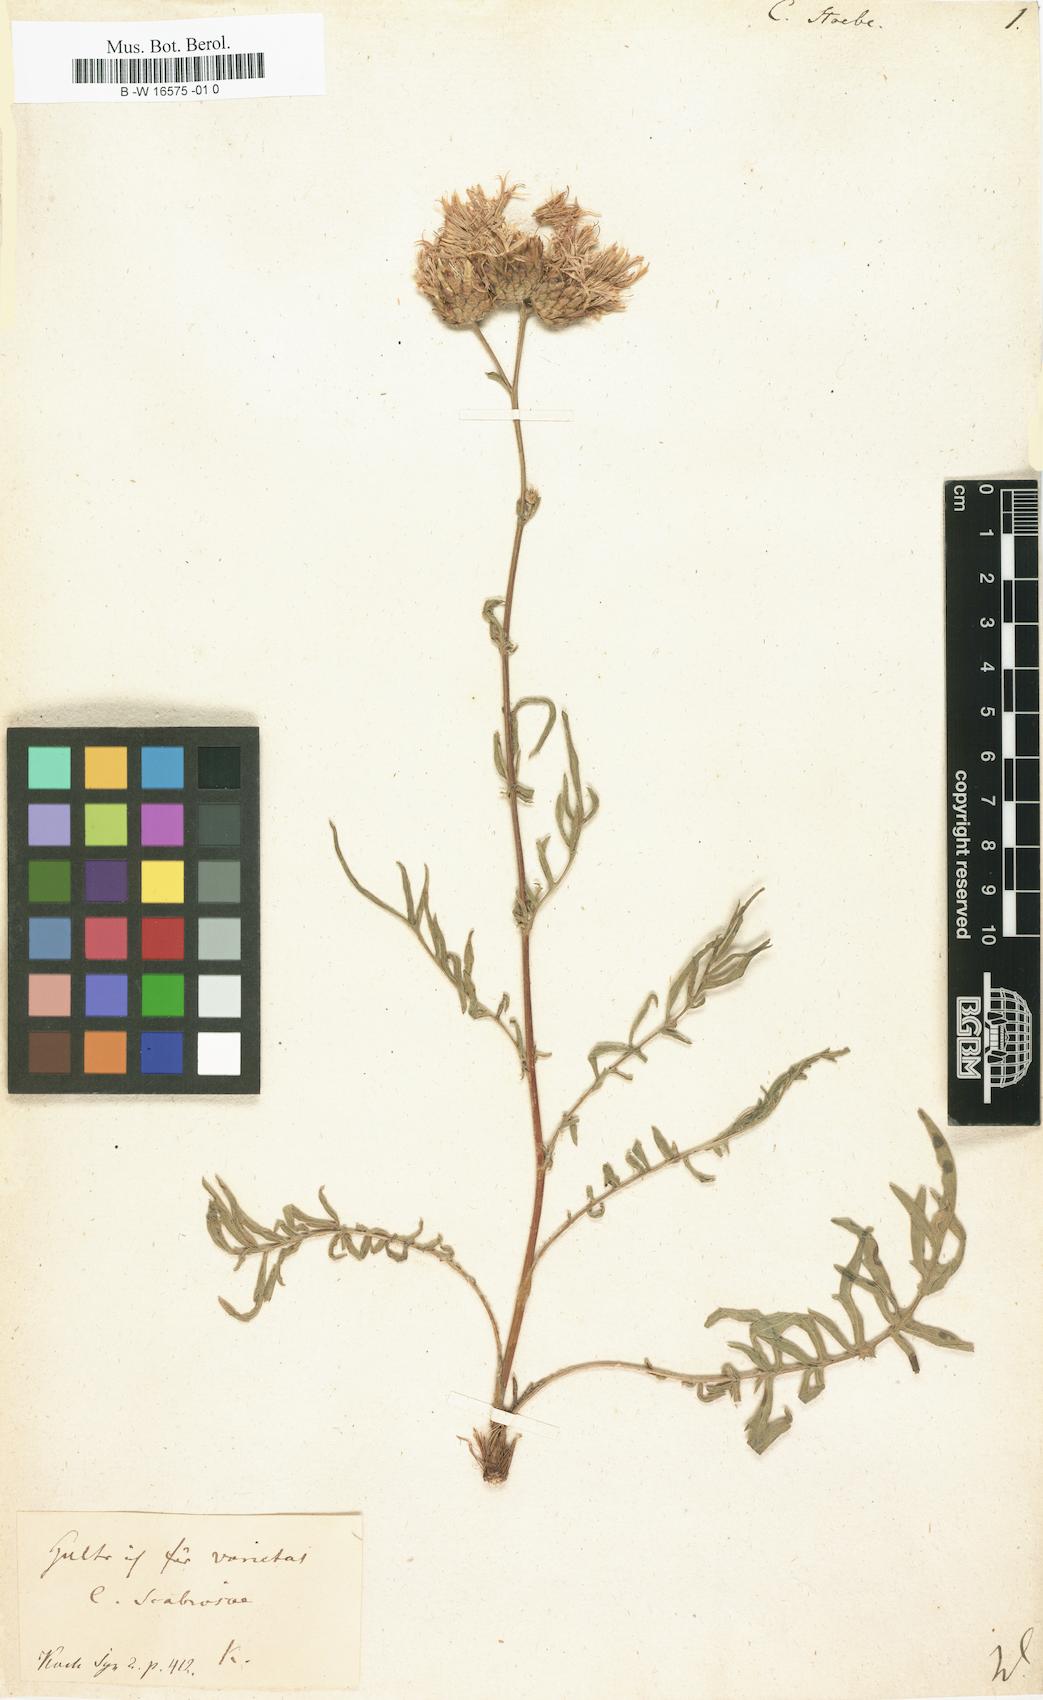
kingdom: Plantae
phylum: Tracheophyta
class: Magnoliopsida
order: Asterales
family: Asteraceae
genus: Centaurea
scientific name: Centaurea stoebe
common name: Spotted knapweed
